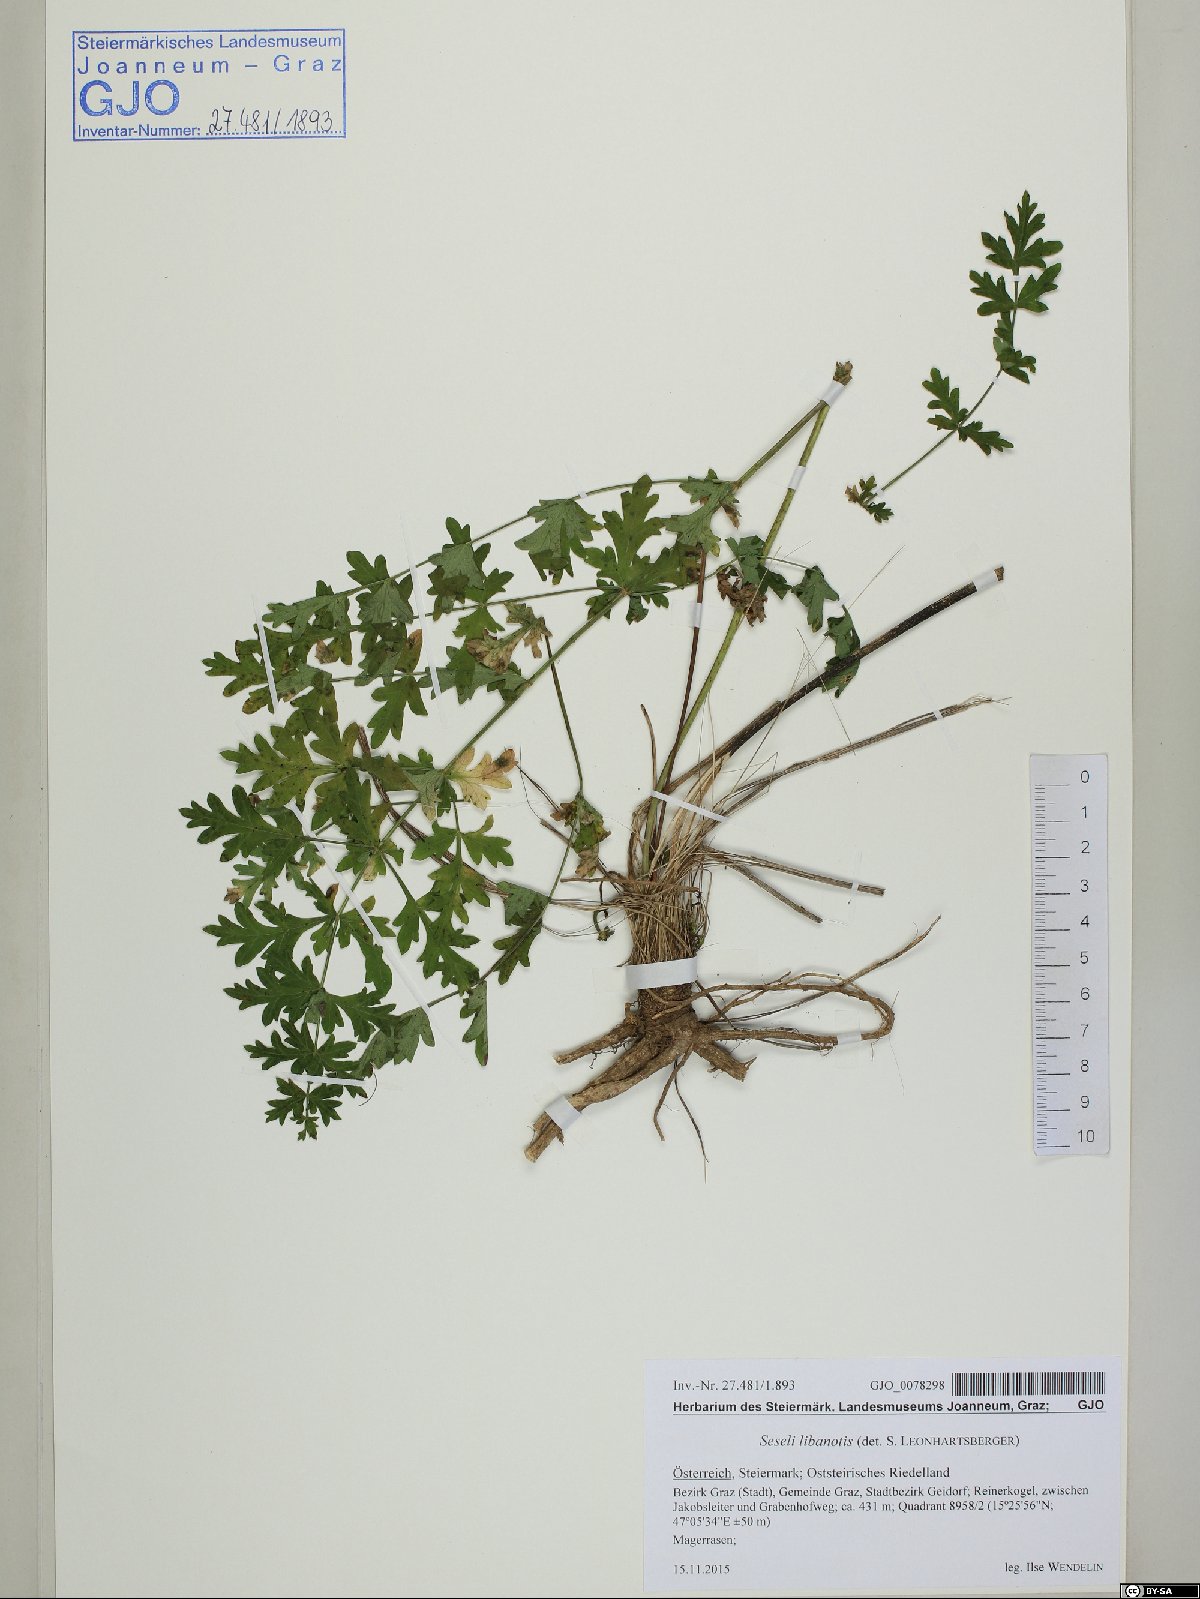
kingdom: Plantae
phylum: Tracheophyta
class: Magnoliopsida
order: Apiales
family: Apiaceae
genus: Seseli
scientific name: Seseli libanotis
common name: Mooncarrot
